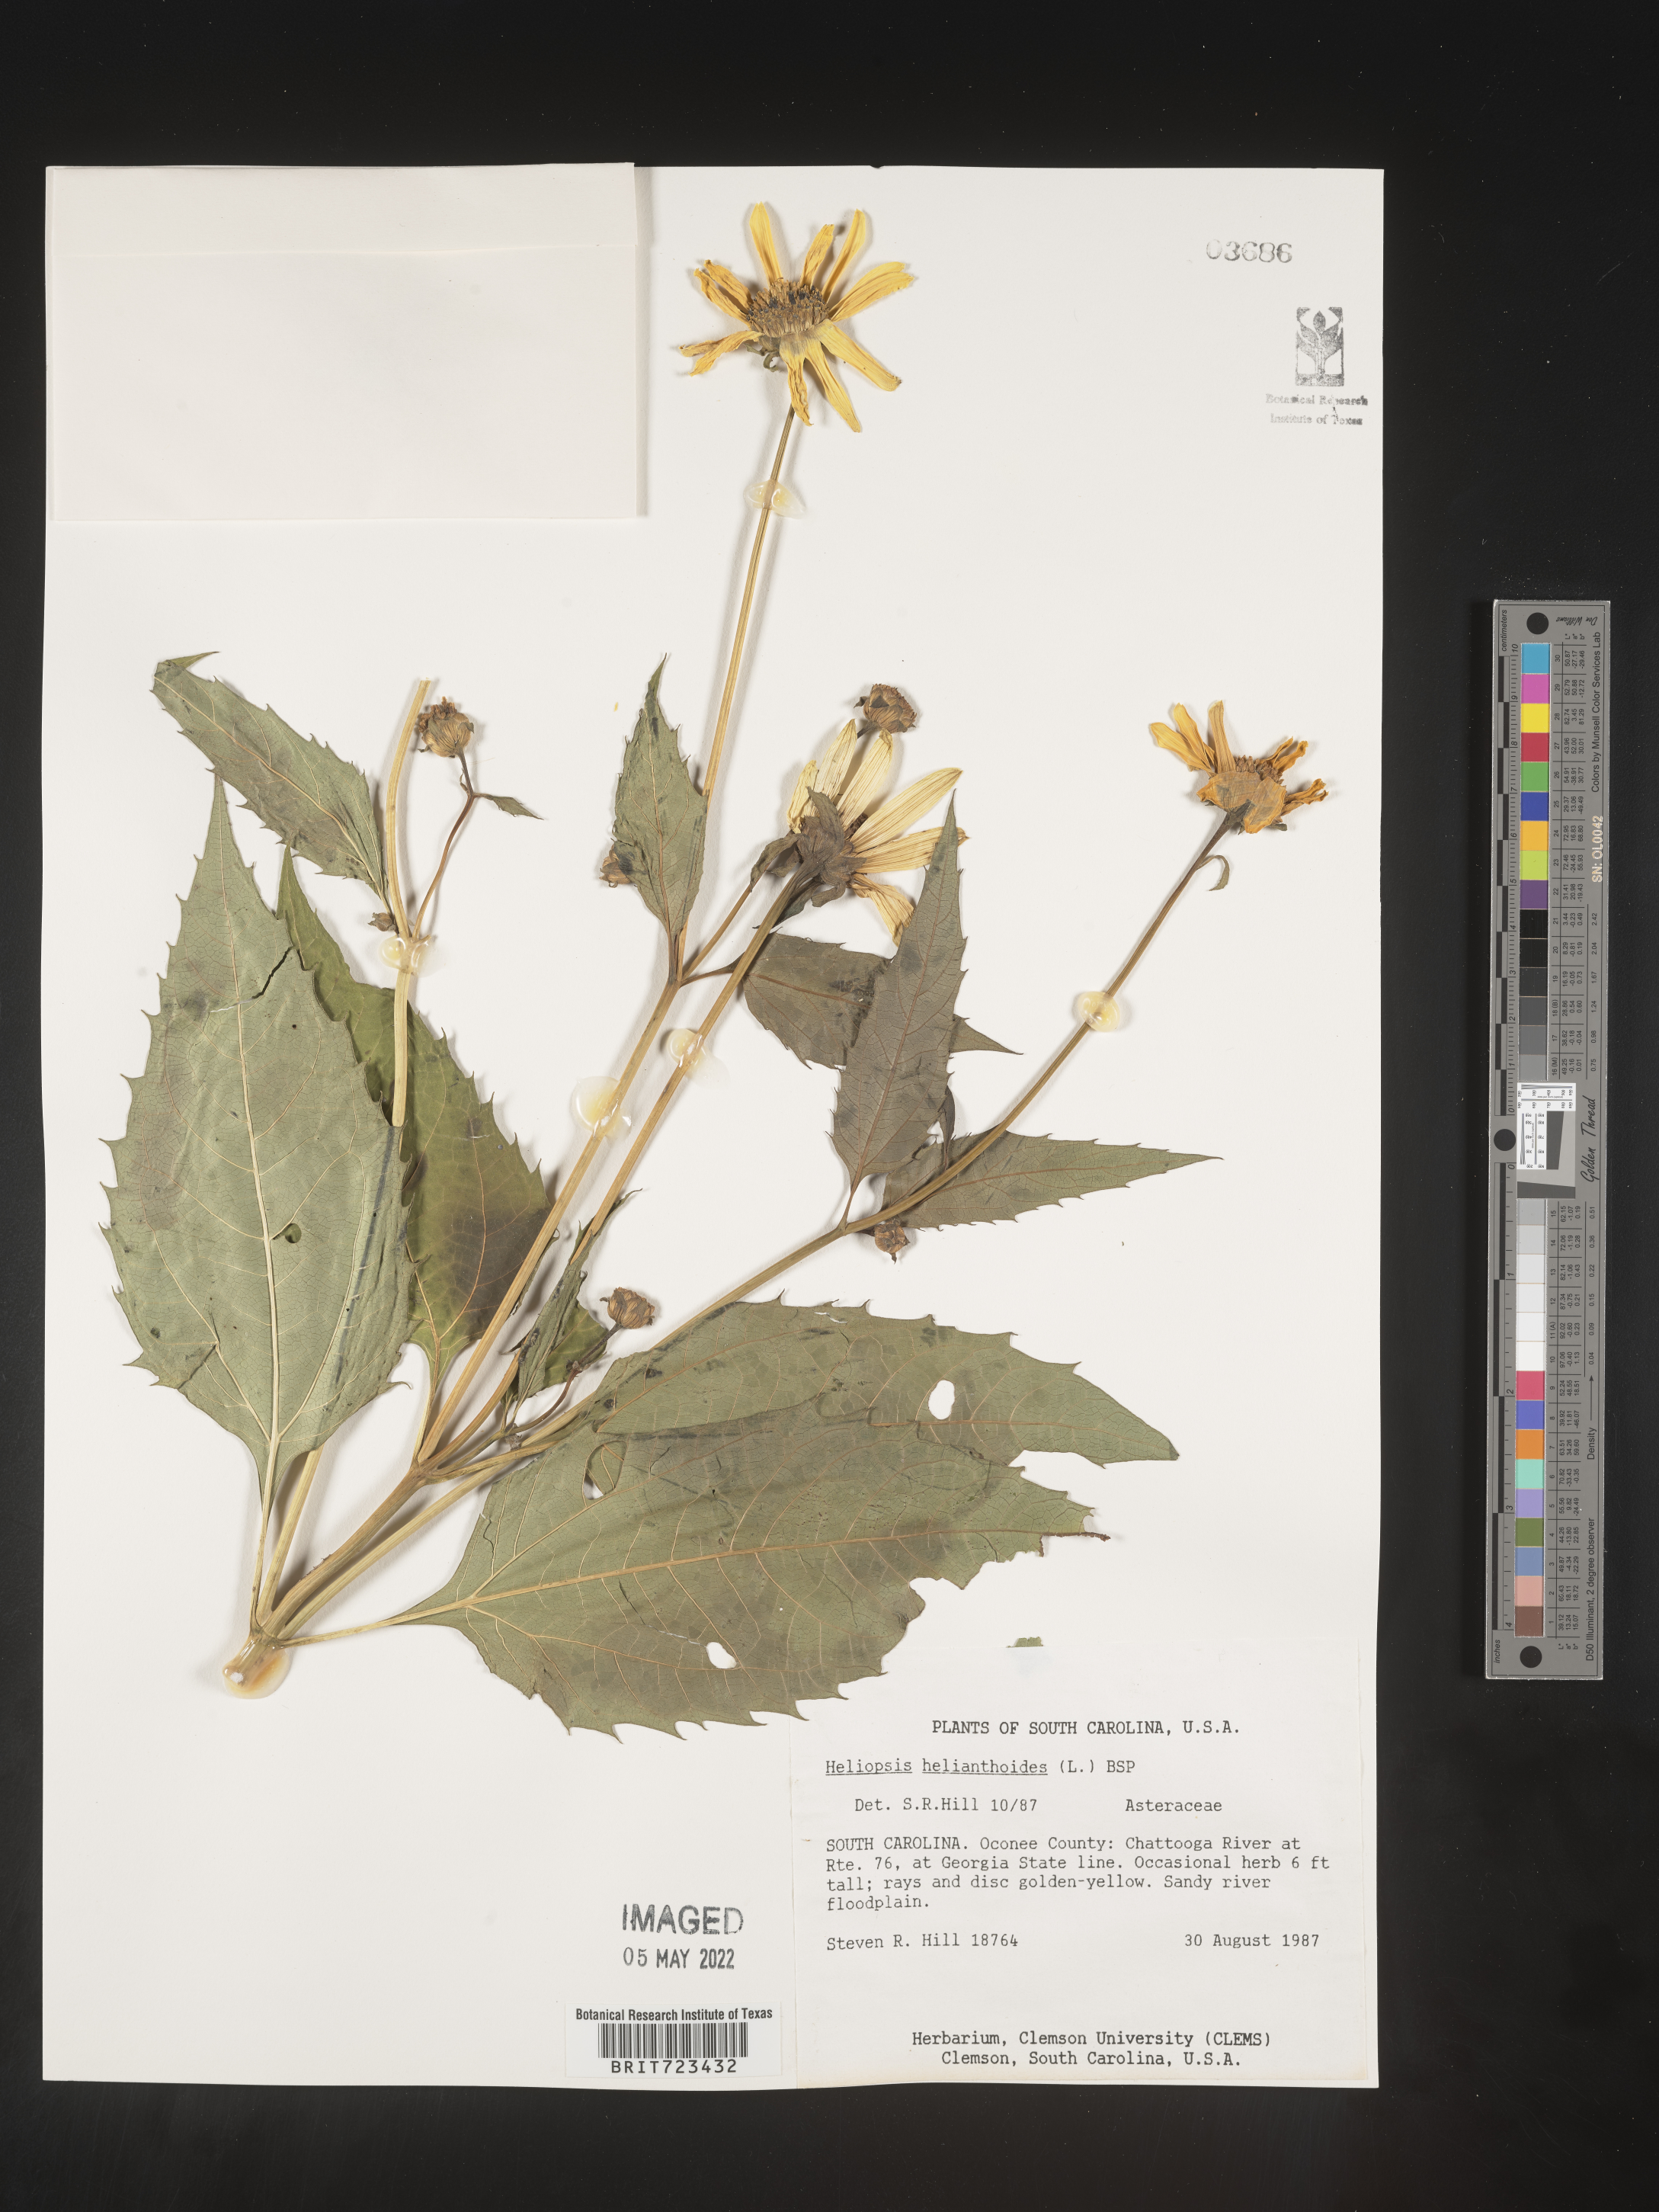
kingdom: Plantae
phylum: Tracheophyta
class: Magnoliopsida
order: Asterales
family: Asteraceae
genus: Heliopsis
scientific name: Heliopsis helianthoides
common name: False sunflower
